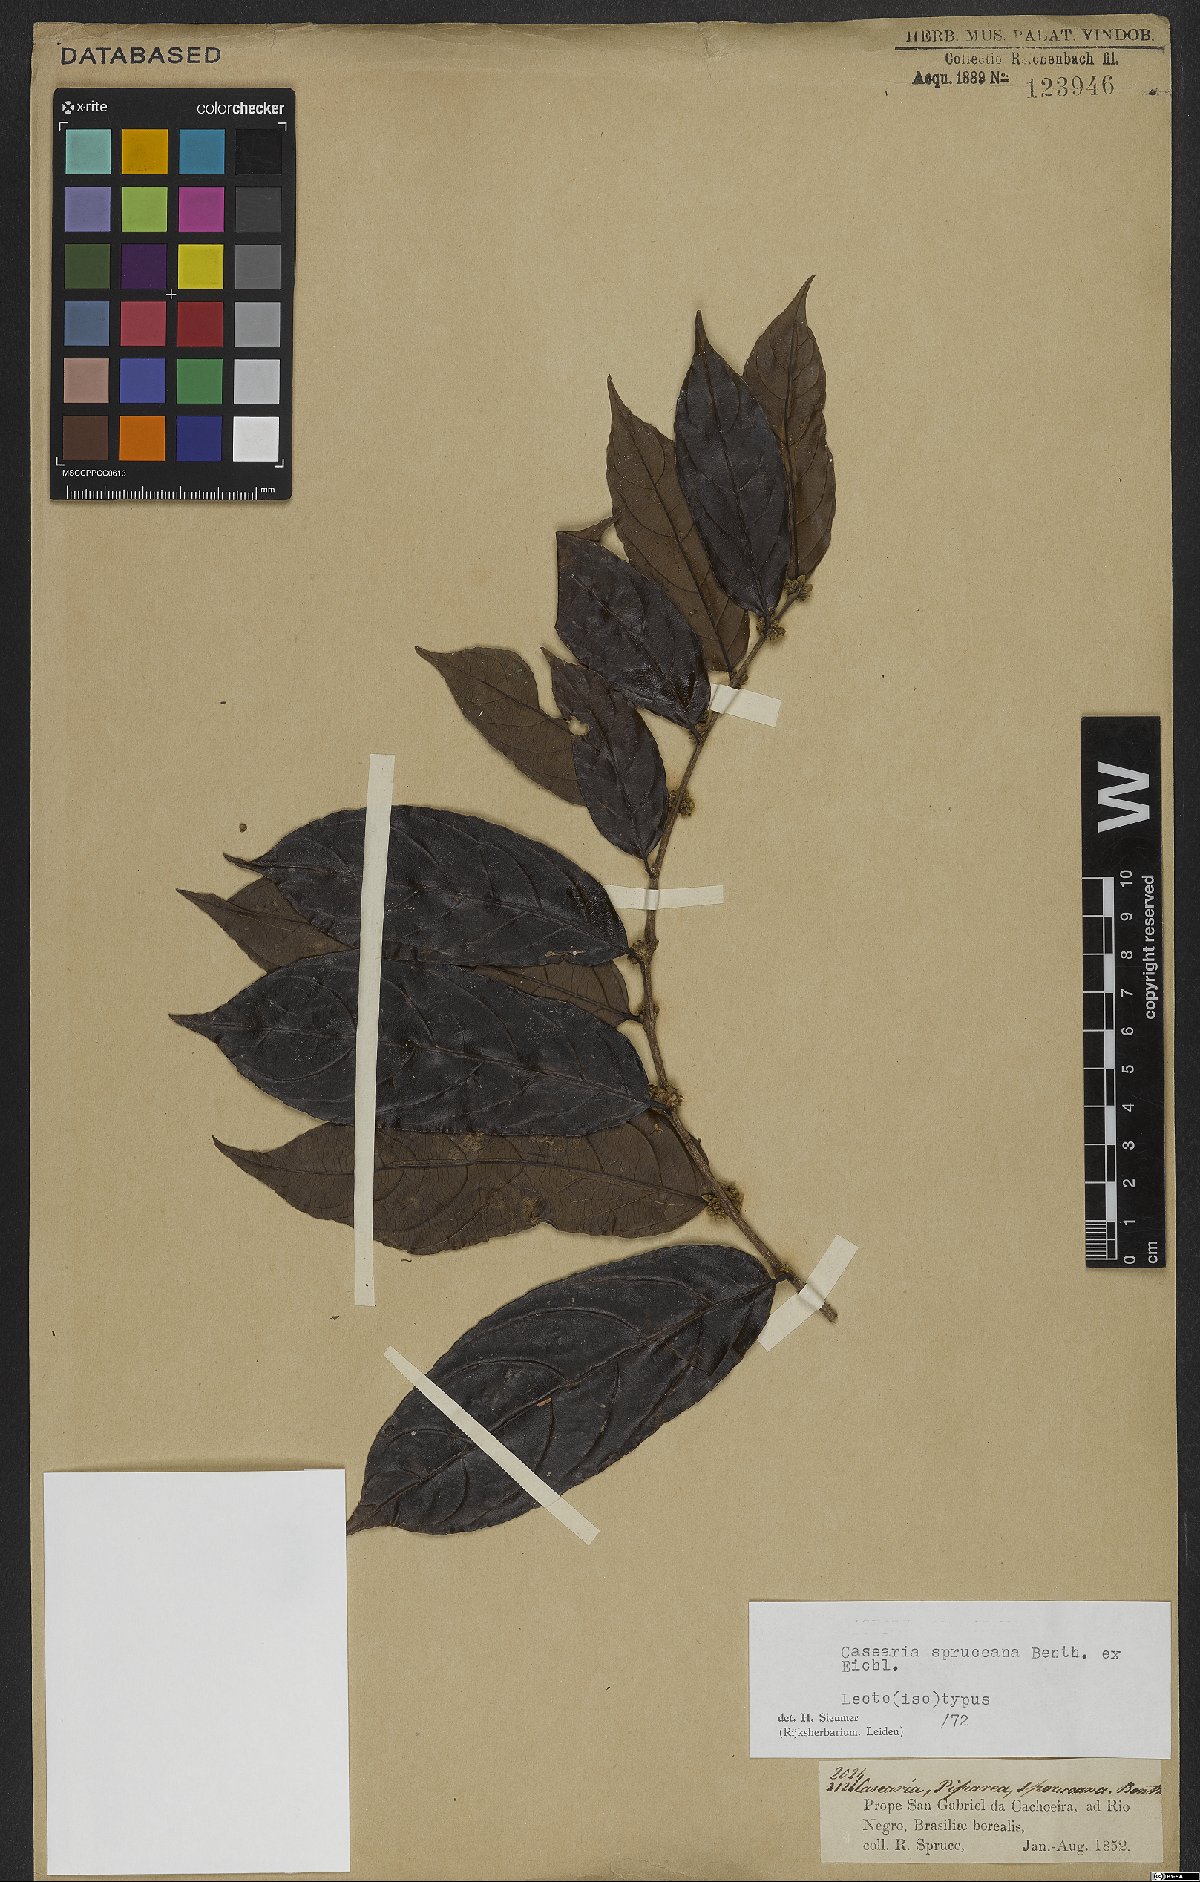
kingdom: Plantae
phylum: Tracheophyta
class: Magnoliopsida
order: Malpighiales
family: Salicaceae
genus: Piparea
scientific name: Piparea spruceana
